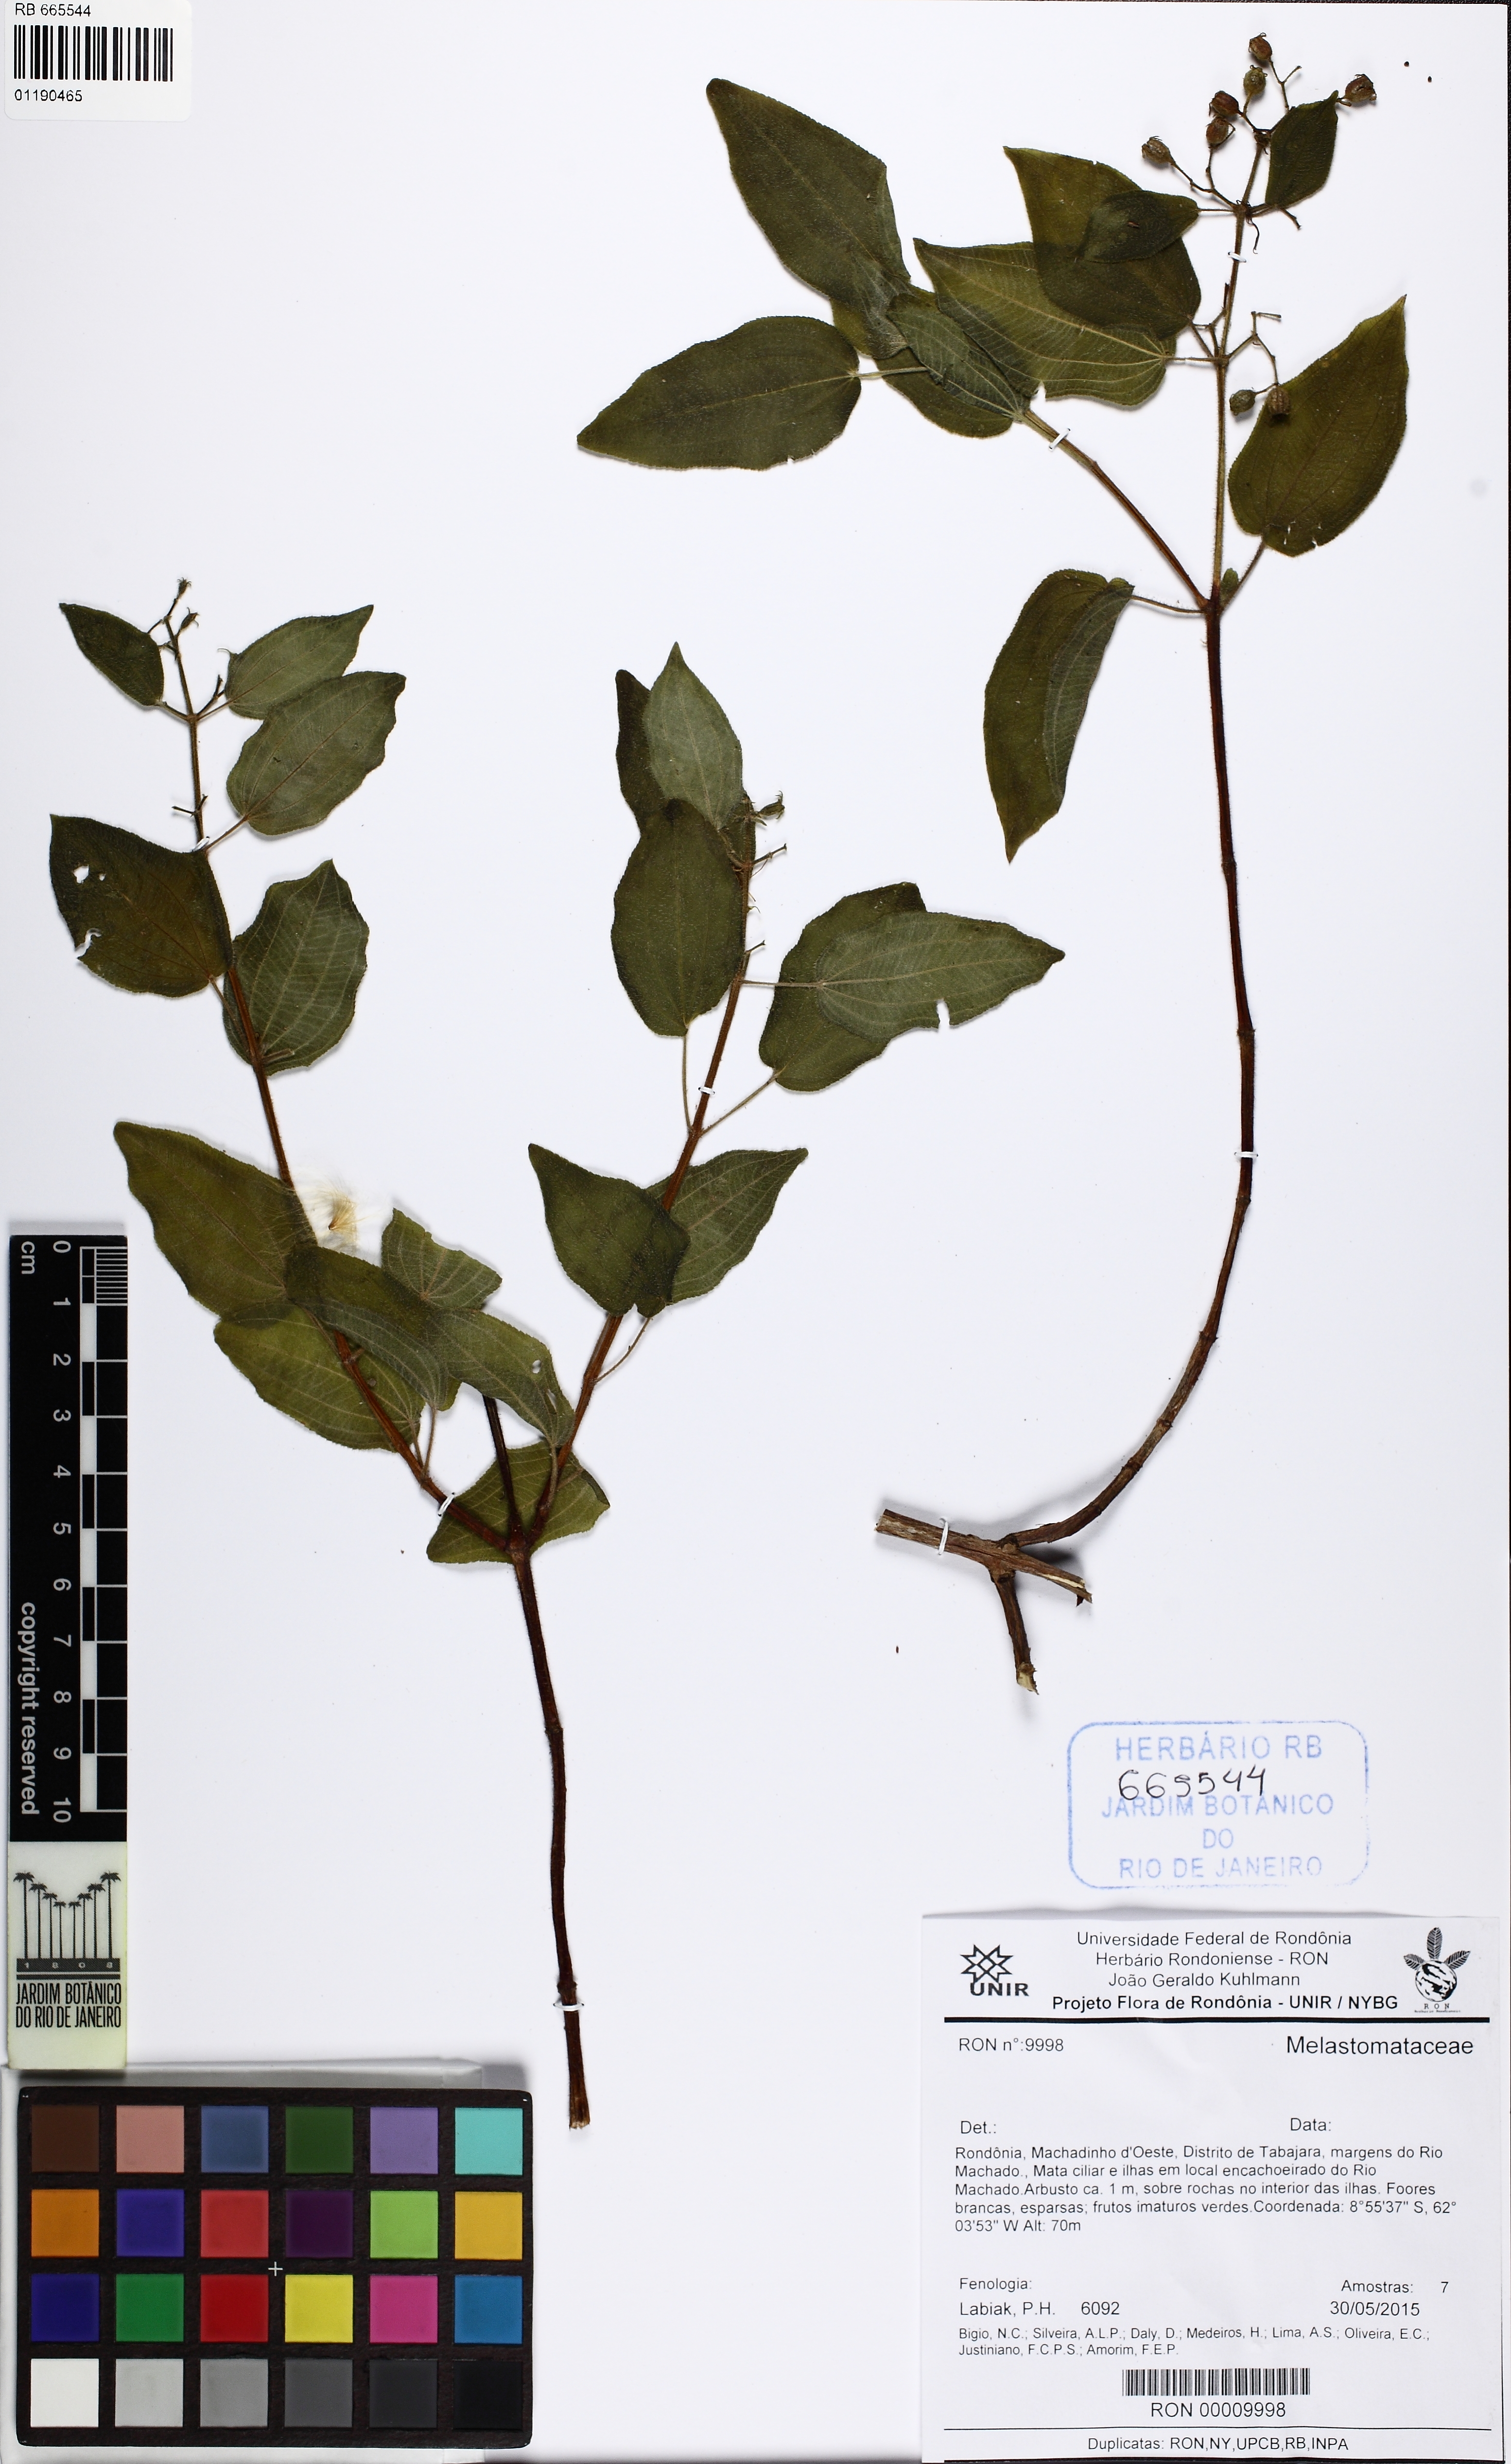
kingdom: Plantae
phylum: Tracheophyta
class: Magnoliopsida
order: Myrtales
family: Melastomataceae
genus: Aciotis
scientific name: Aciotis indecora
